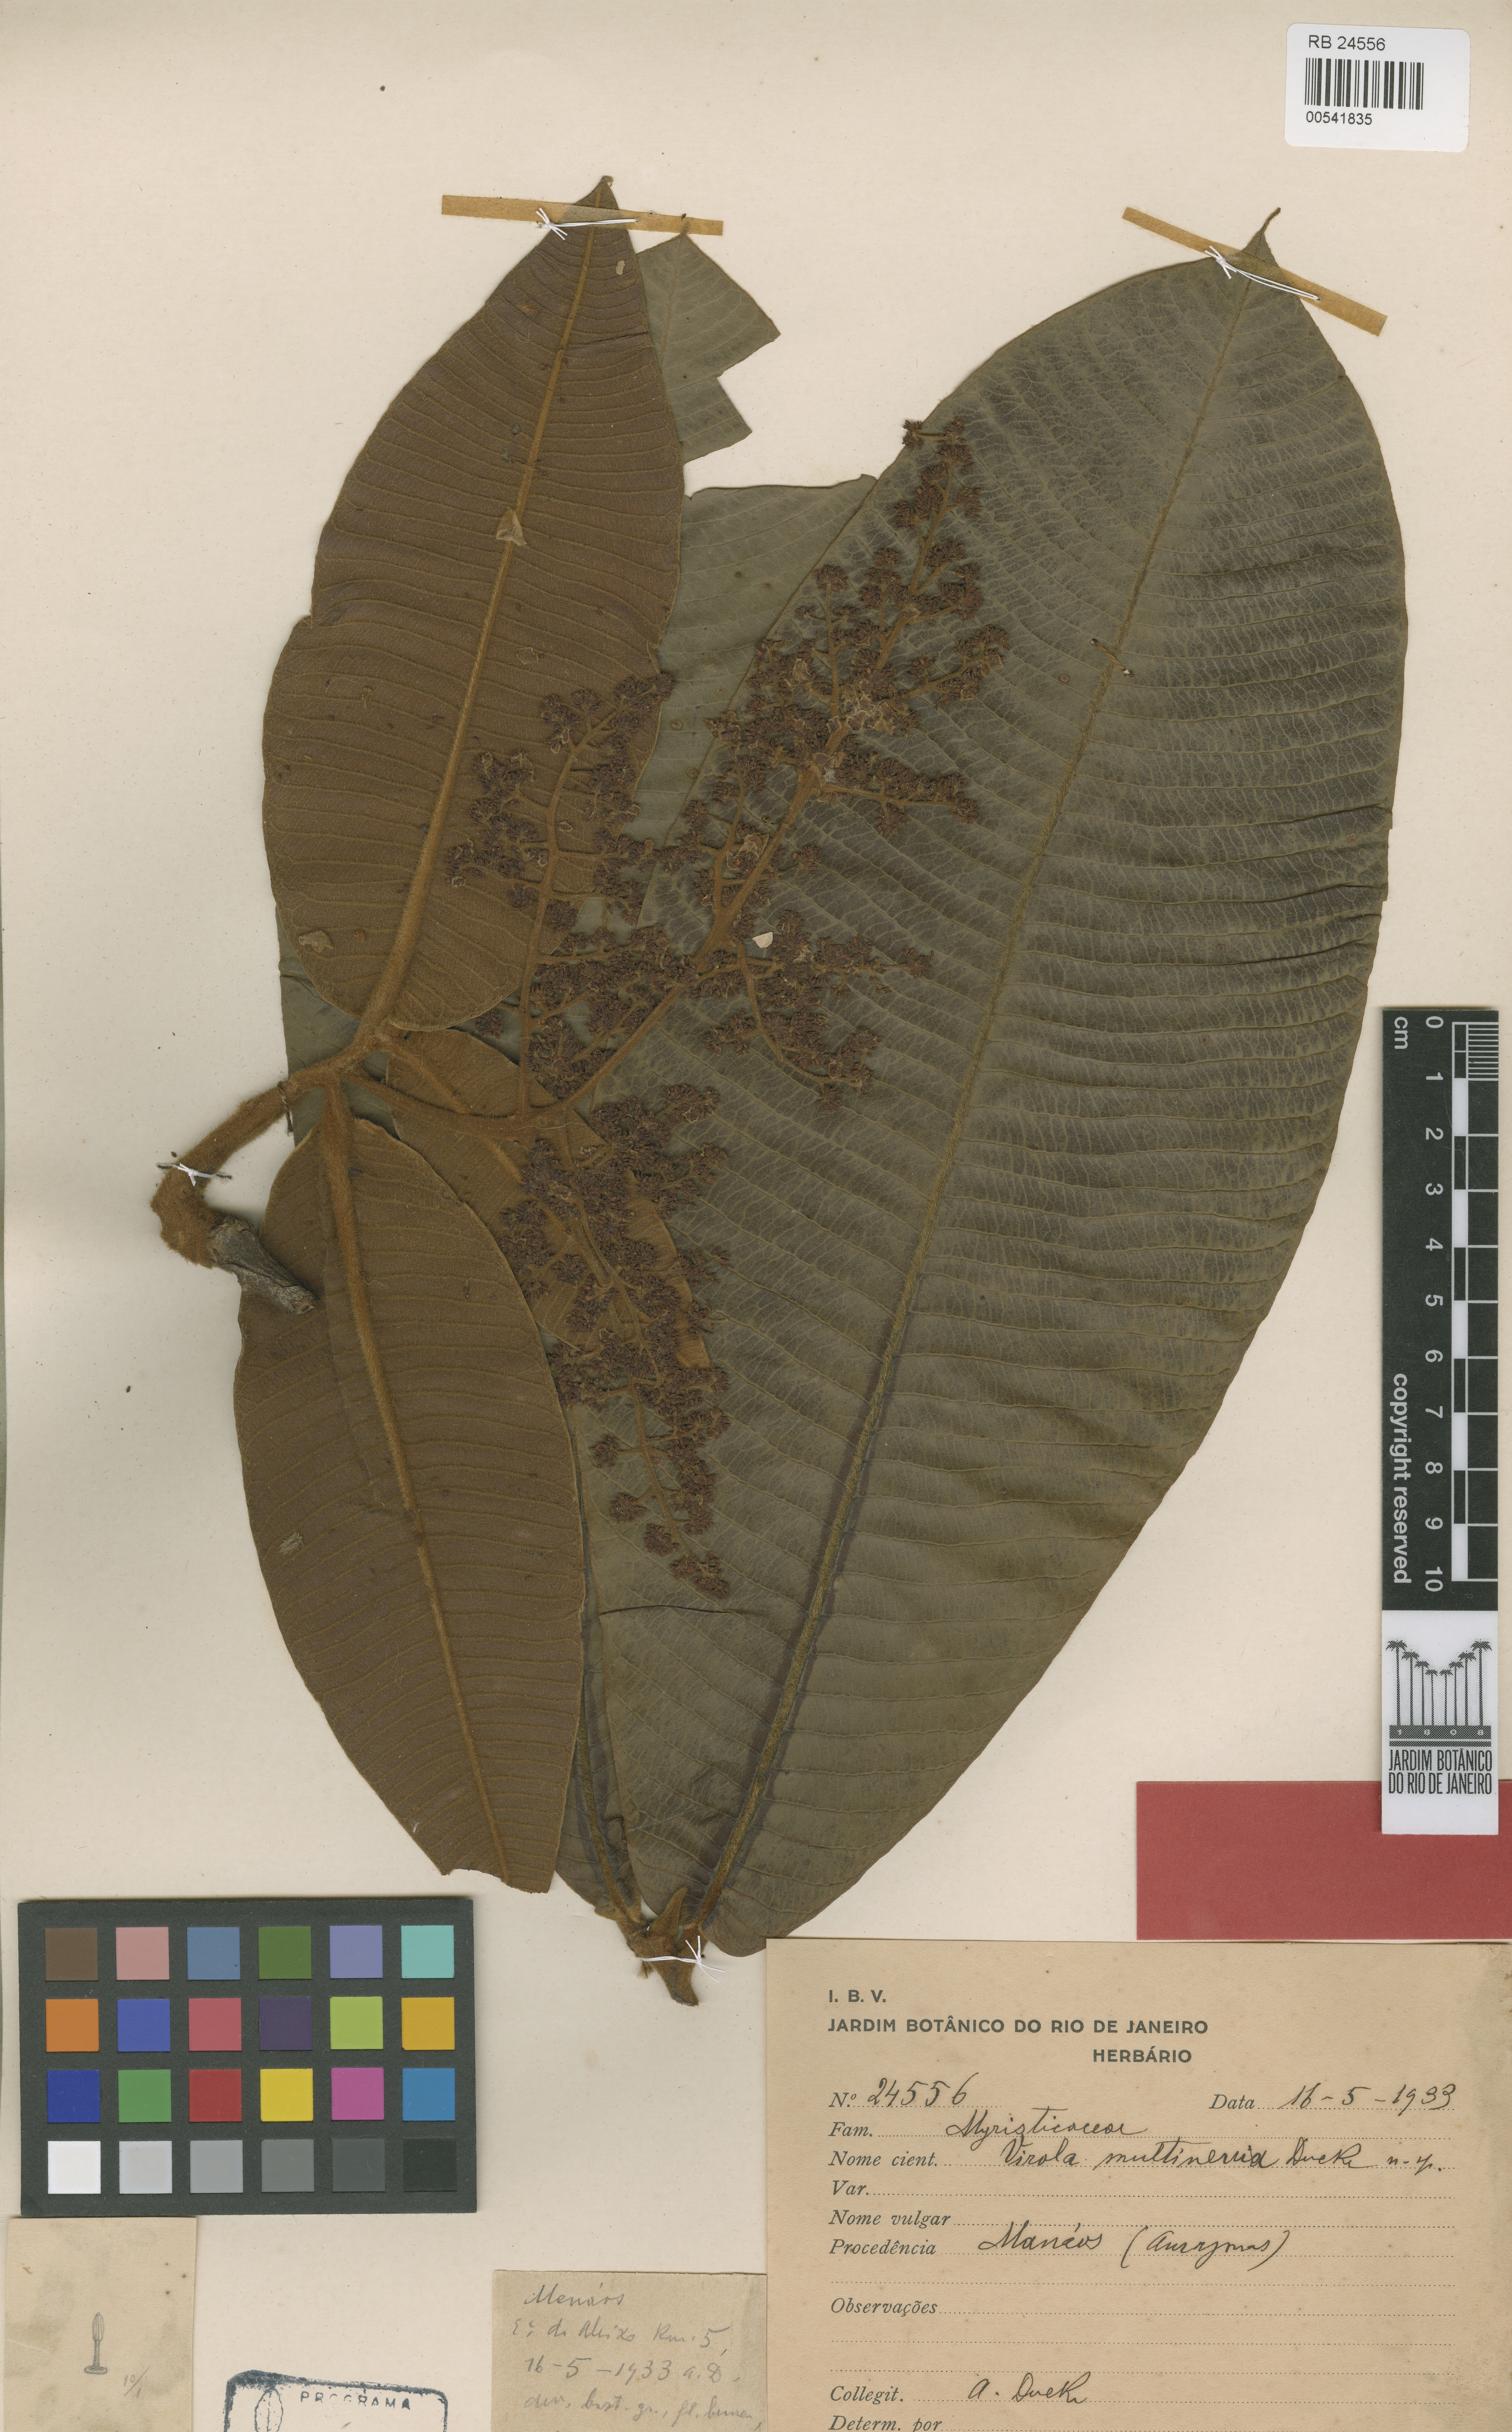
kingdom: Plantae
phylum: Tracheophyta
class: Magnoliopsida
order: Magnoliales
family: Myristicaceae
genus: Virola
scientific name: Virola multinervia
